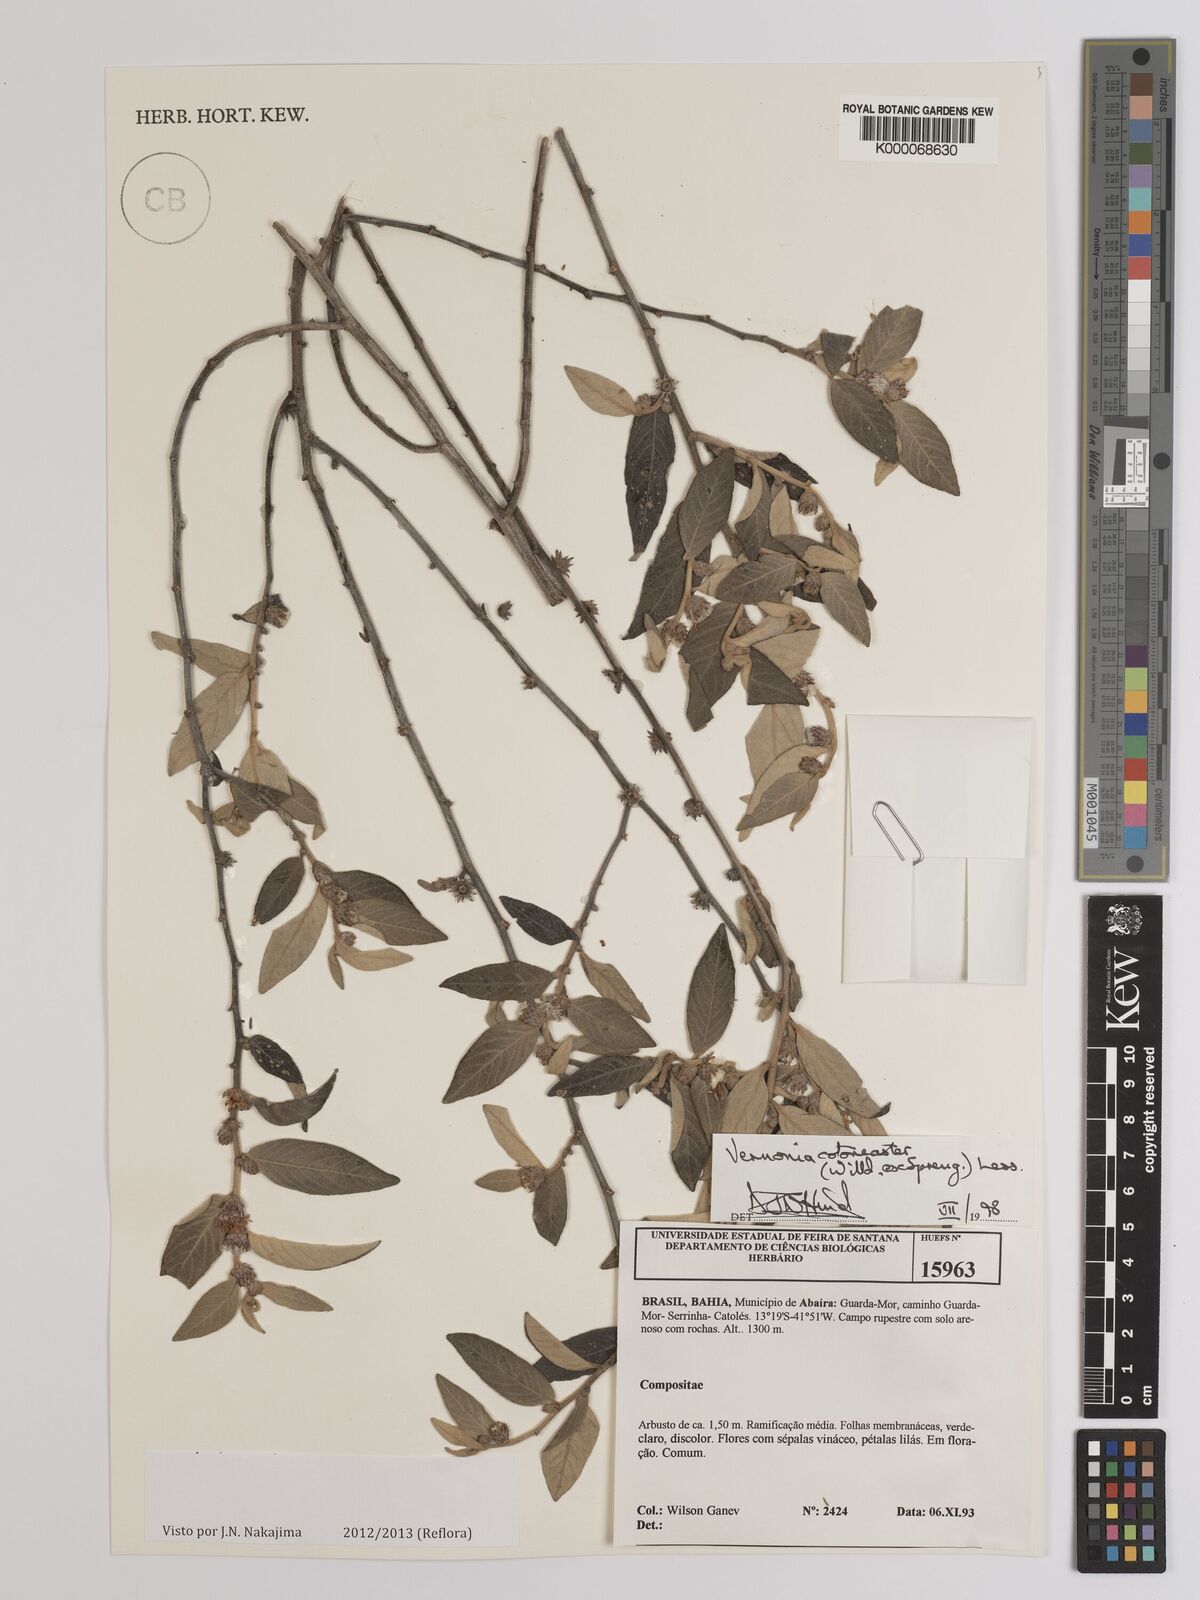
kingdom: Plantae
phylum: Tracheophyta
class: Magnoliopsida
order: Asterales
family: Asteraceae
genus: Lepidaploa
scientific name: Lepidaploa cotoneaster
